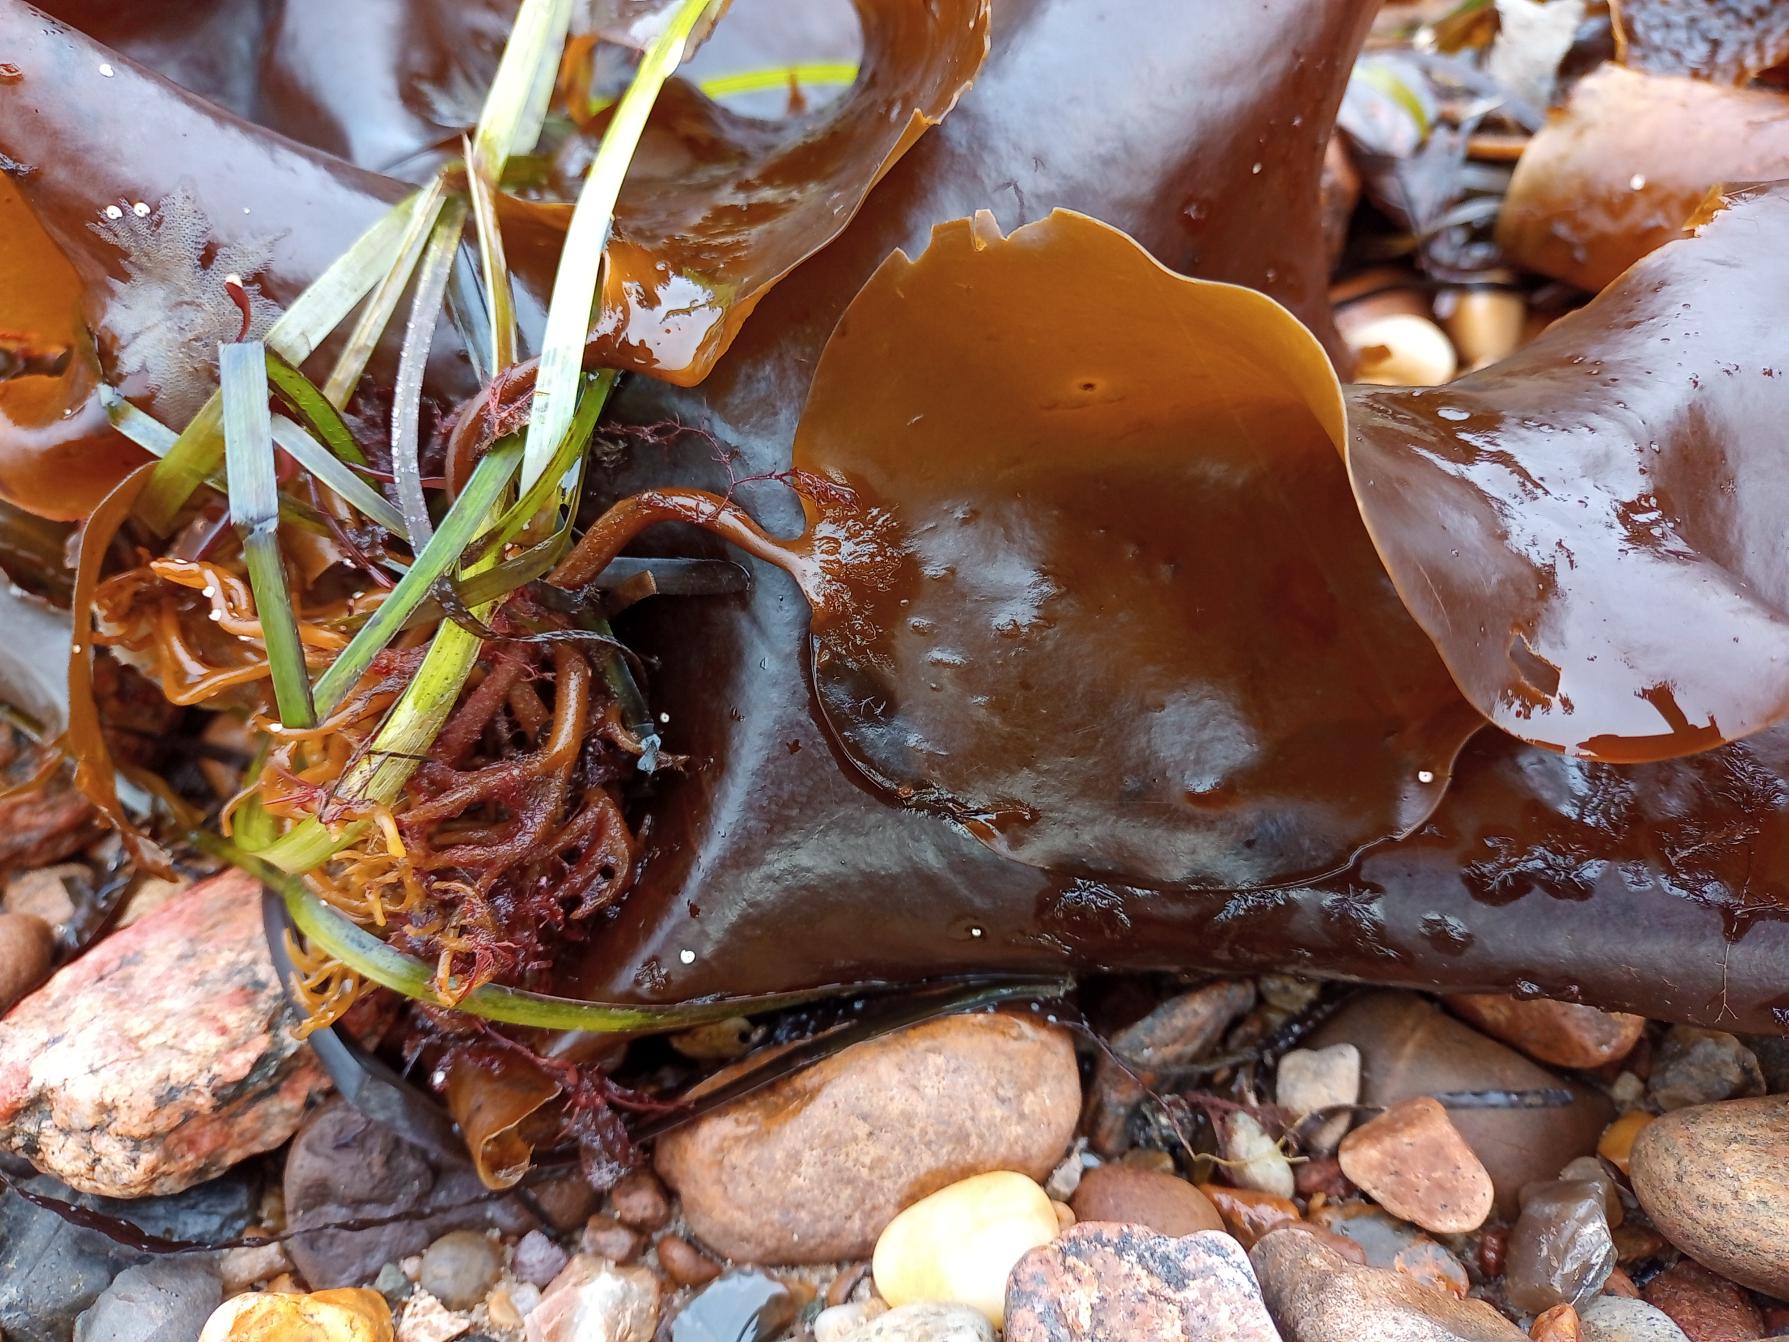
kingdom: Chromista
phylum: Ochrophyta
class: Phaeophyceae
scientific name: Phaeophyceae
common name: Brunalger
